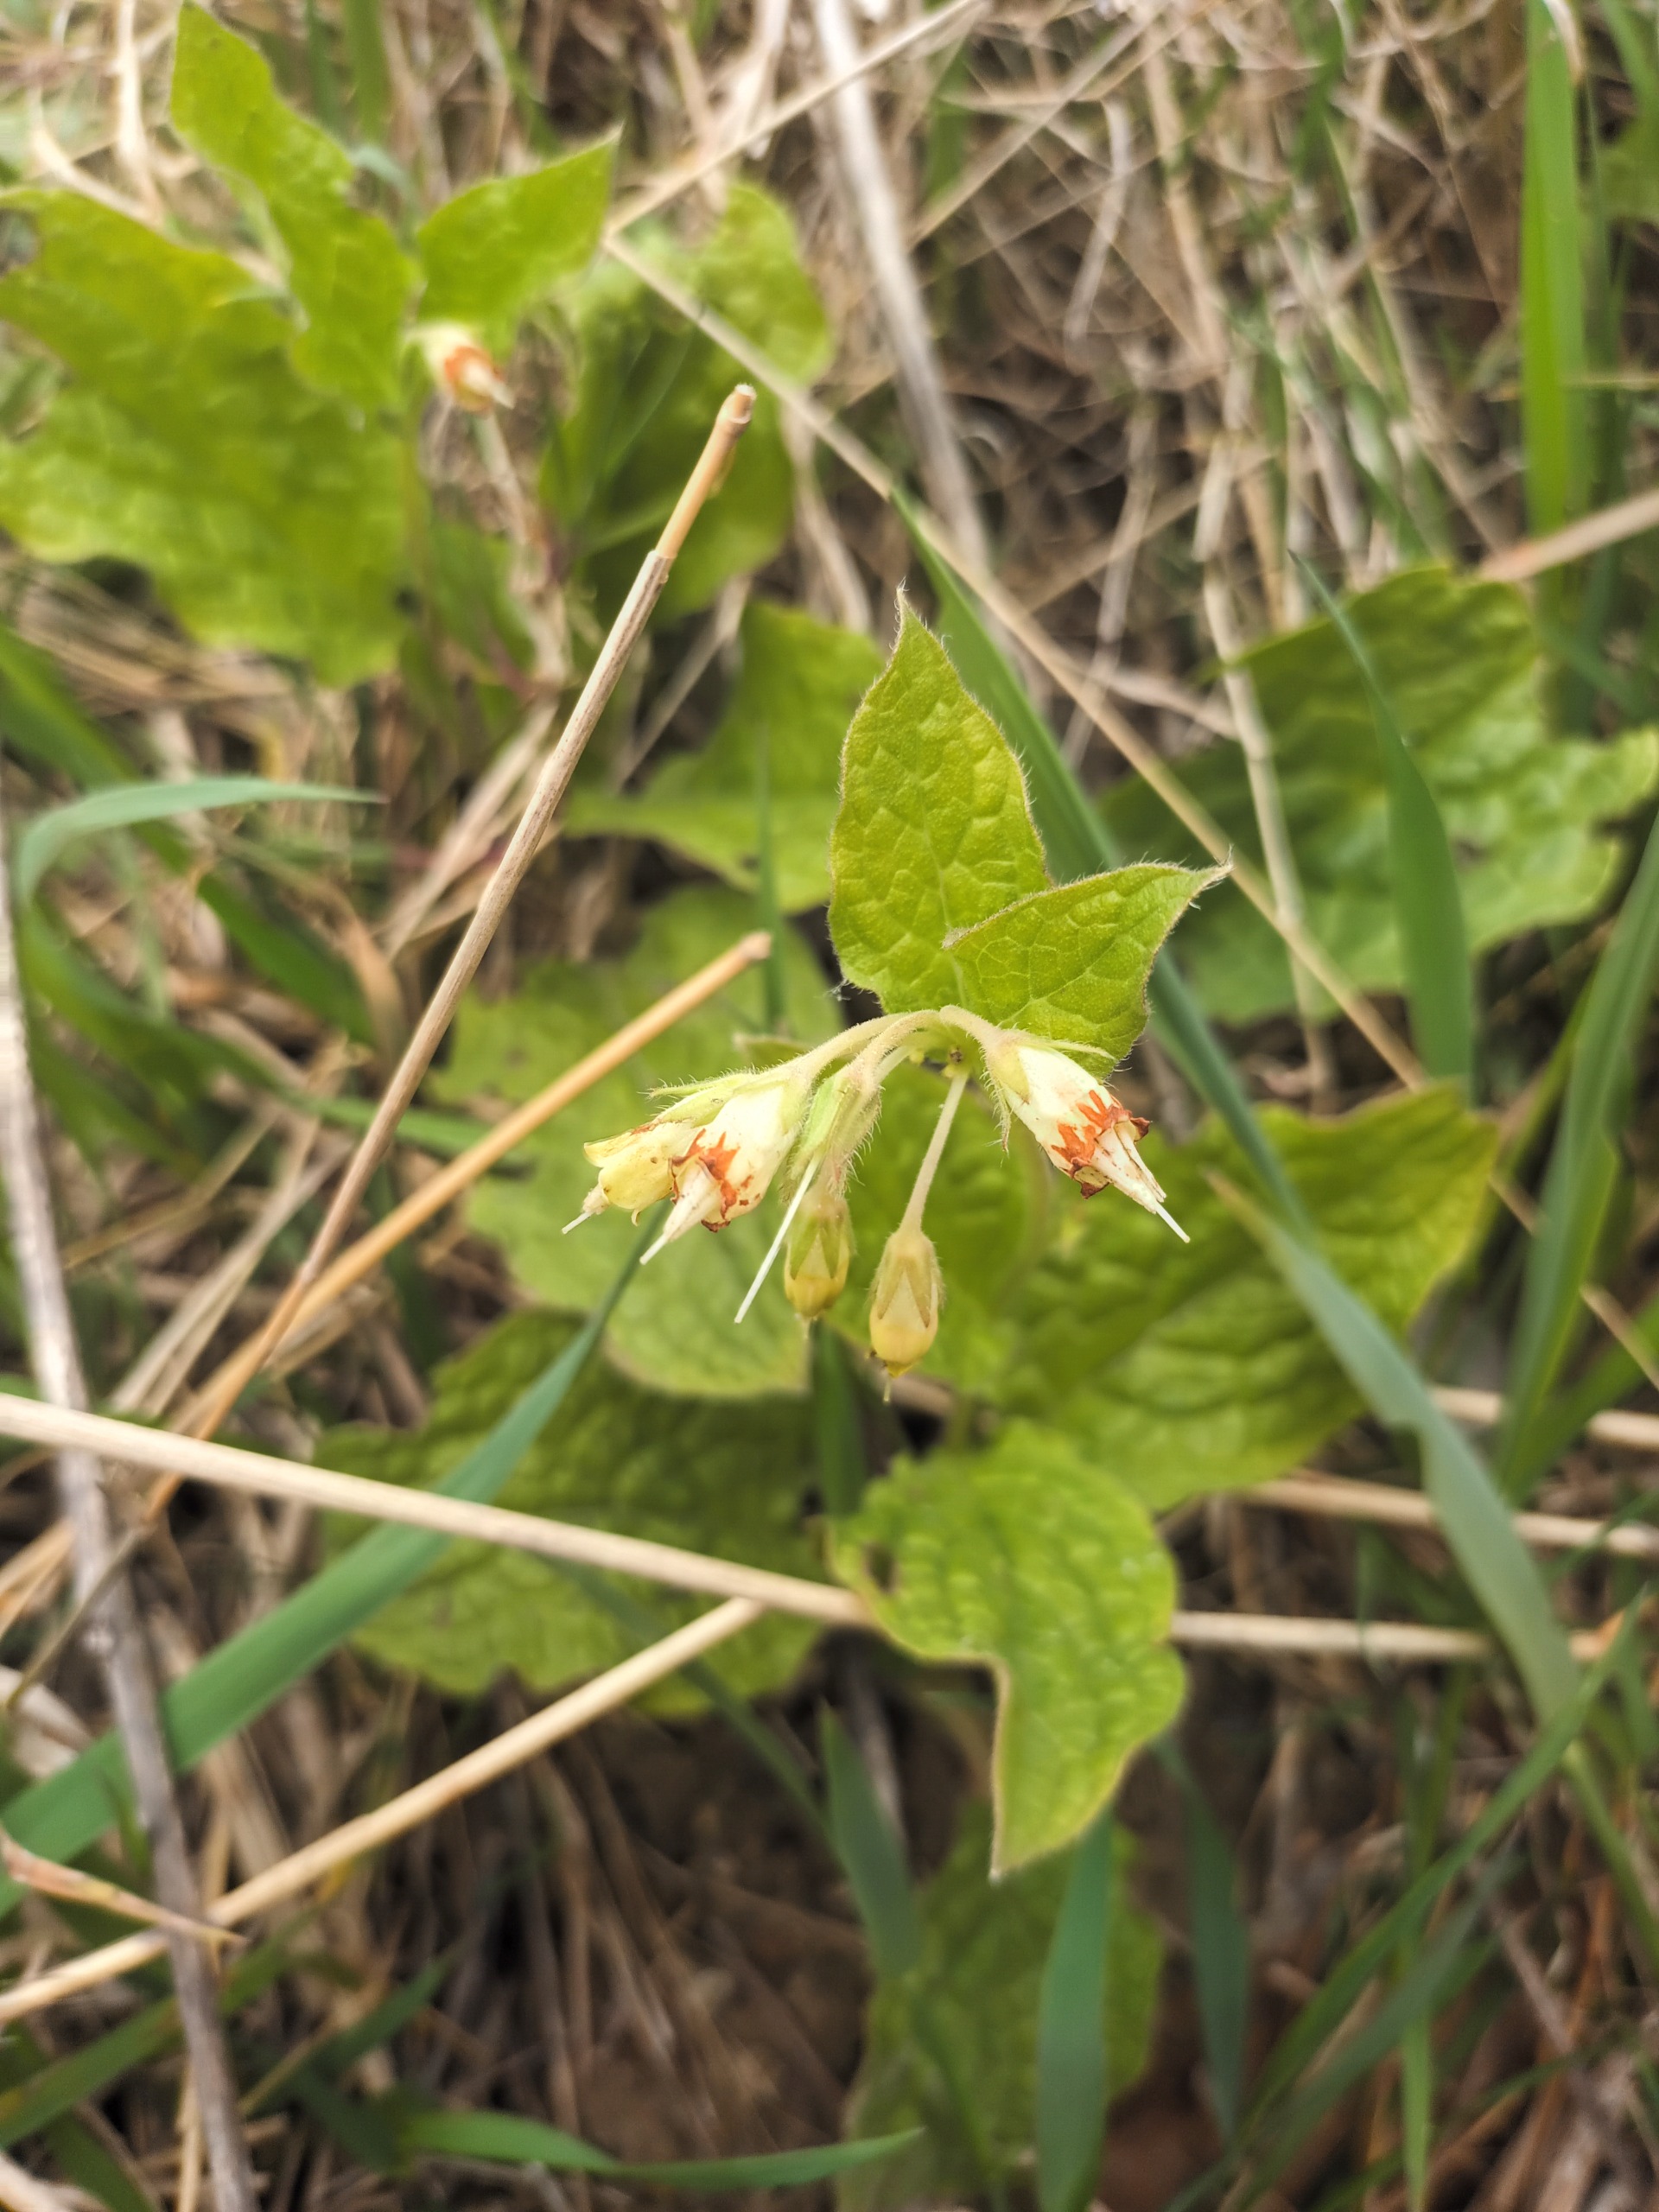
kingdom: Plantae
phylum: Tracheophyta
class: Magnoliopsida
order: Boraginales
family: Boraginaceae
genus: Symphytum
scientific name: Symphytum bulbosum
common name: Bleggul kulsukker
